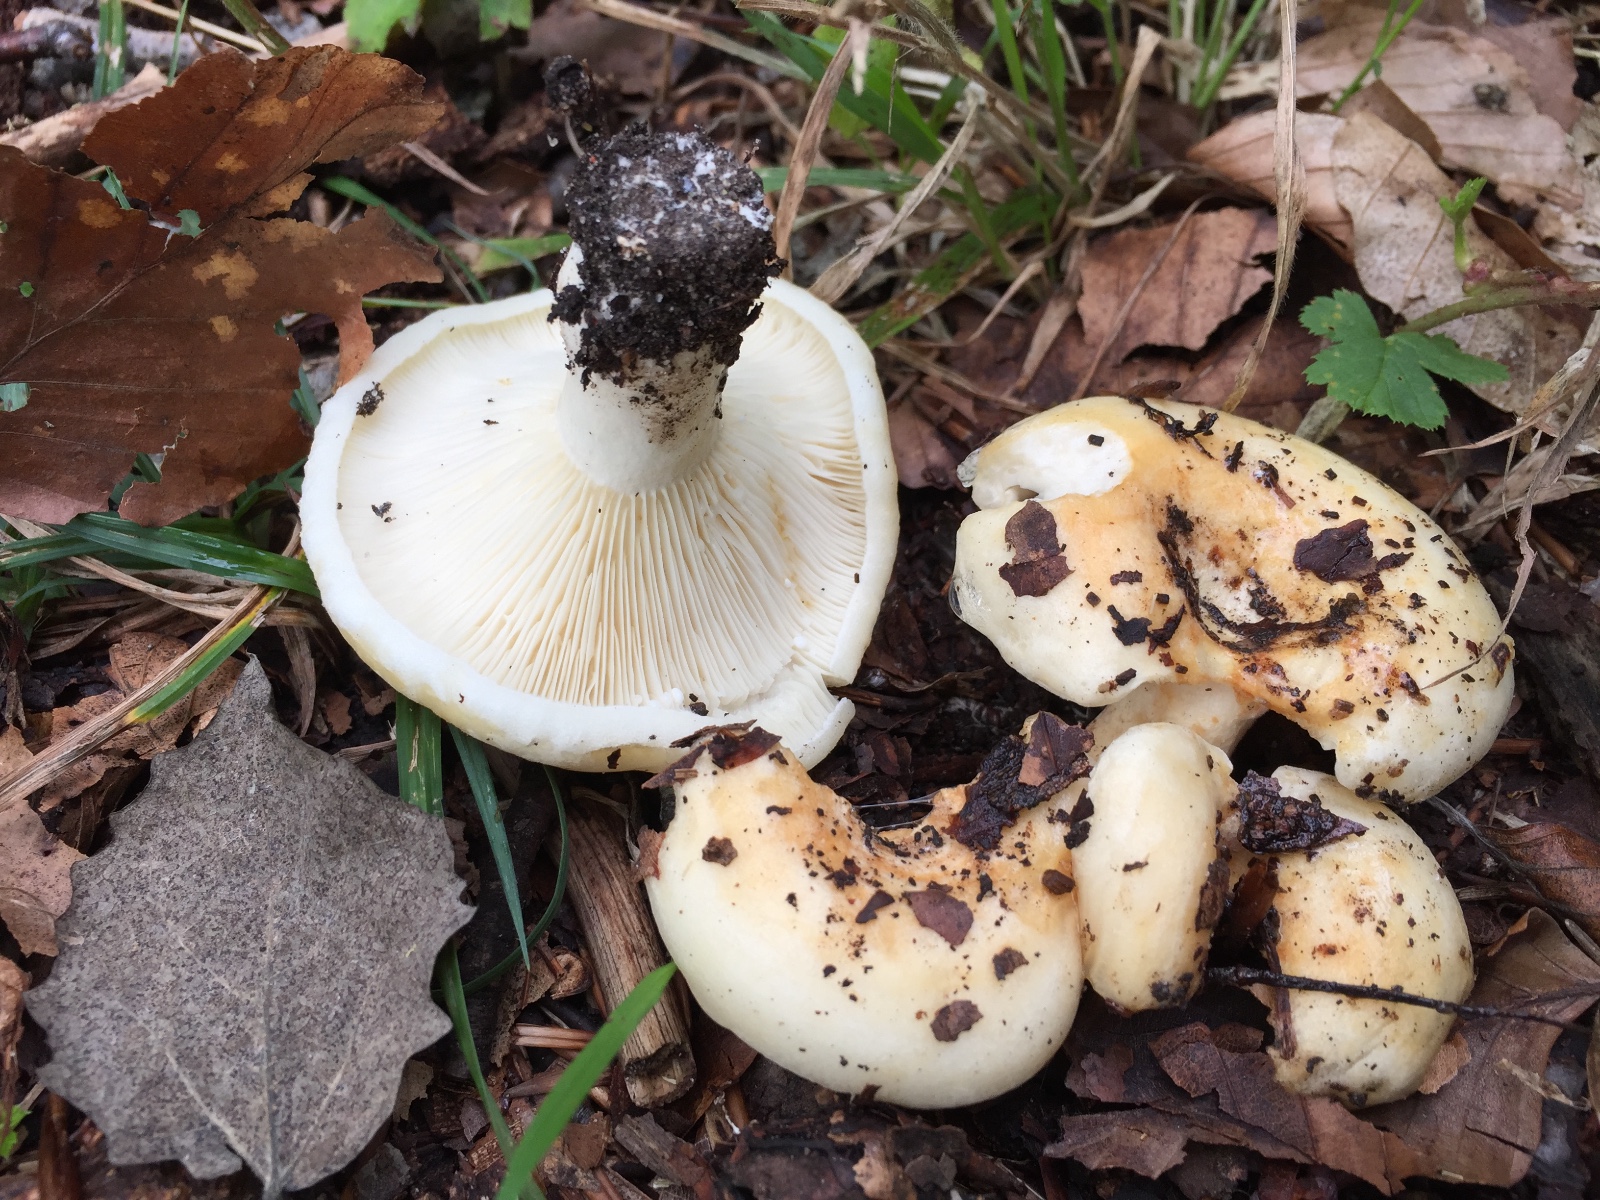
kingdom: Fungi
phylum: Basidiomycota
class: Agaricomycetes
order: Russulales
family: Russulaceae
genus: Lactarius
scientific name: Lactarius evosmus
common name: bæltet mælkehat
